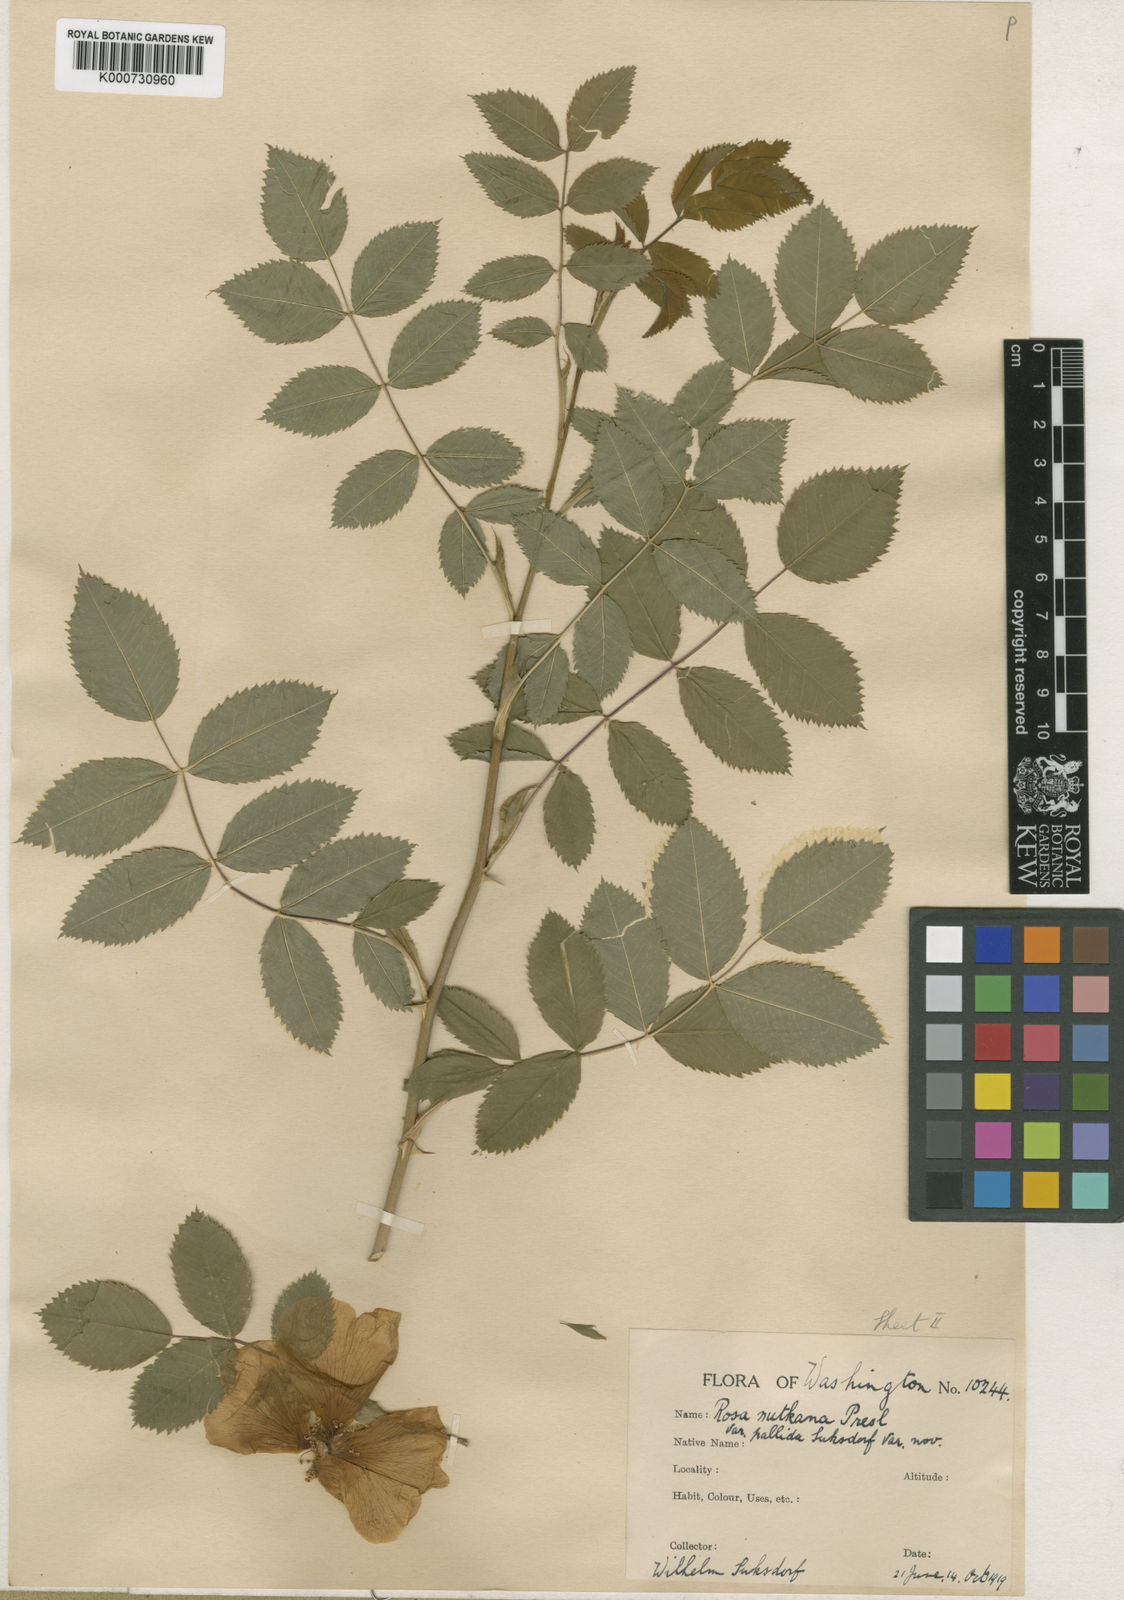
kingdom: Plantae
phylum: Tracheophyta
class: Magnoliopsida
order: Rosales
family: Rosaceae
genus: Rosa
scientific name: Rosa nutkana
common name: Nootka rose
